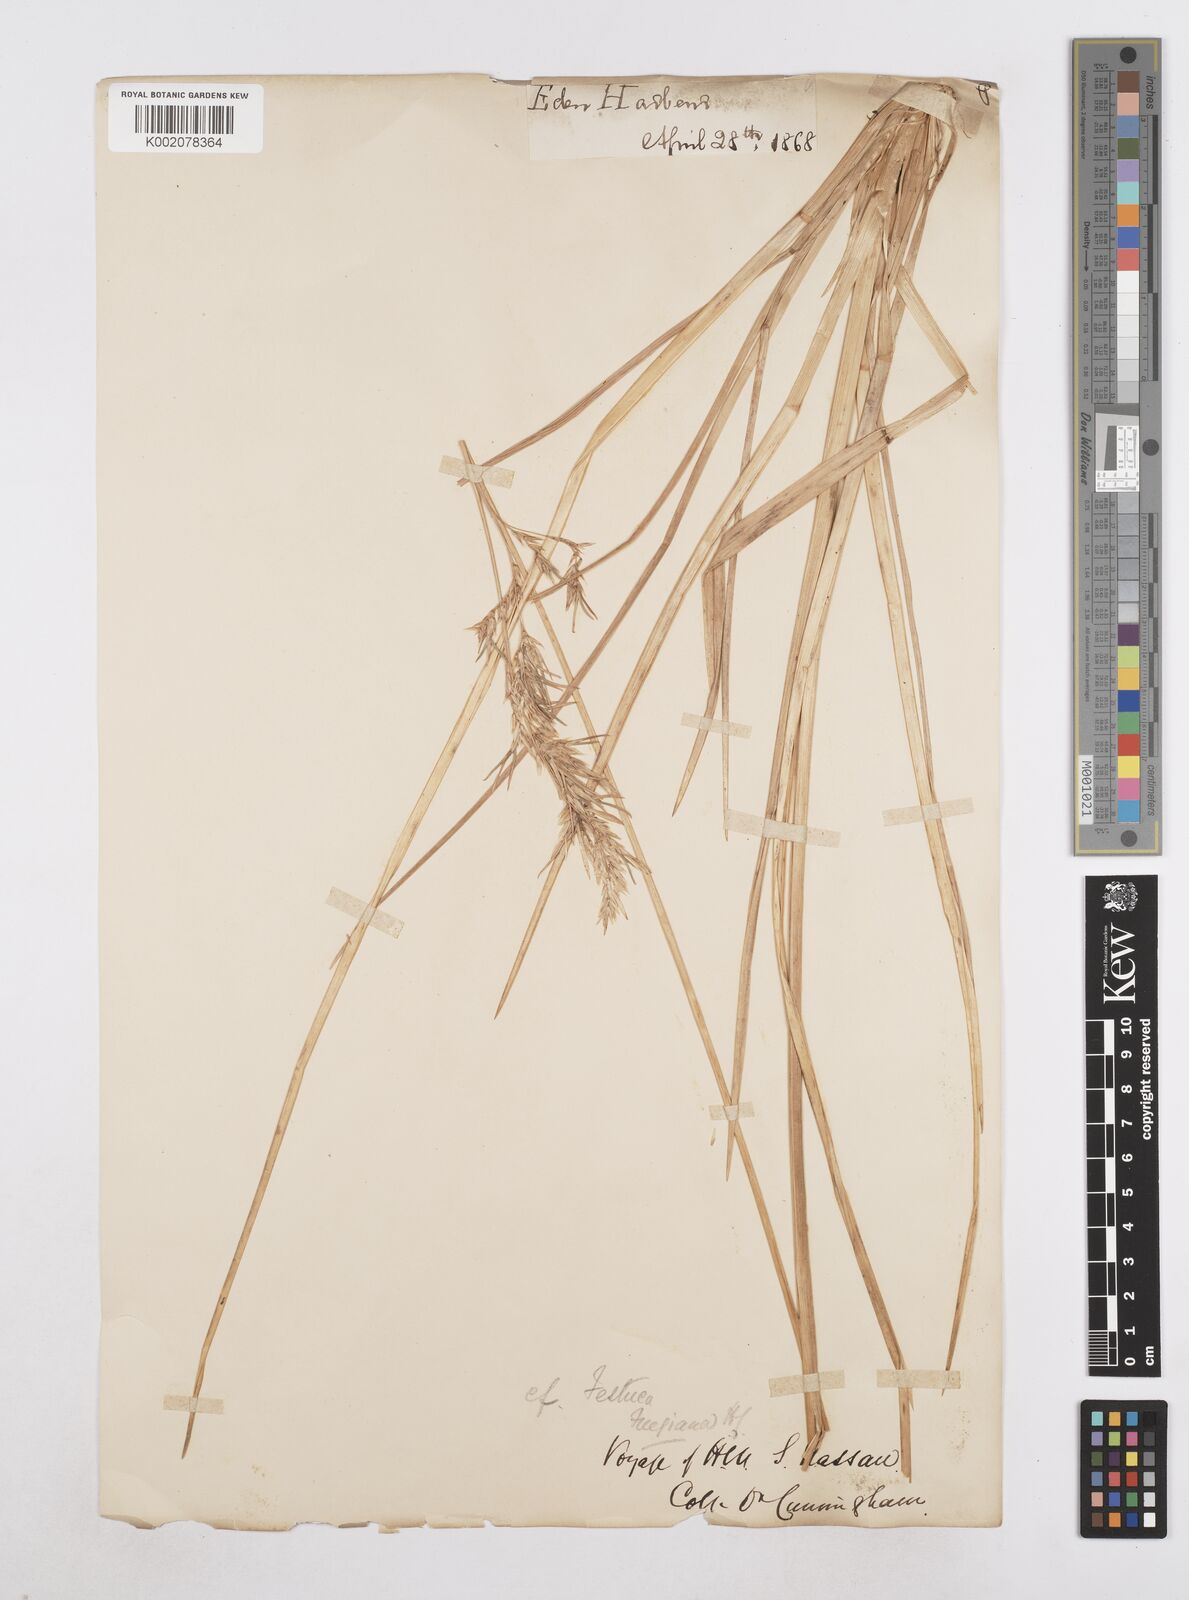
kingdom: Plantae
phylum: Tracheophyta
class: Liliopsida
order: Poales
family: Poaceae
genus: Poa
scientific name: Poa alopecurus
